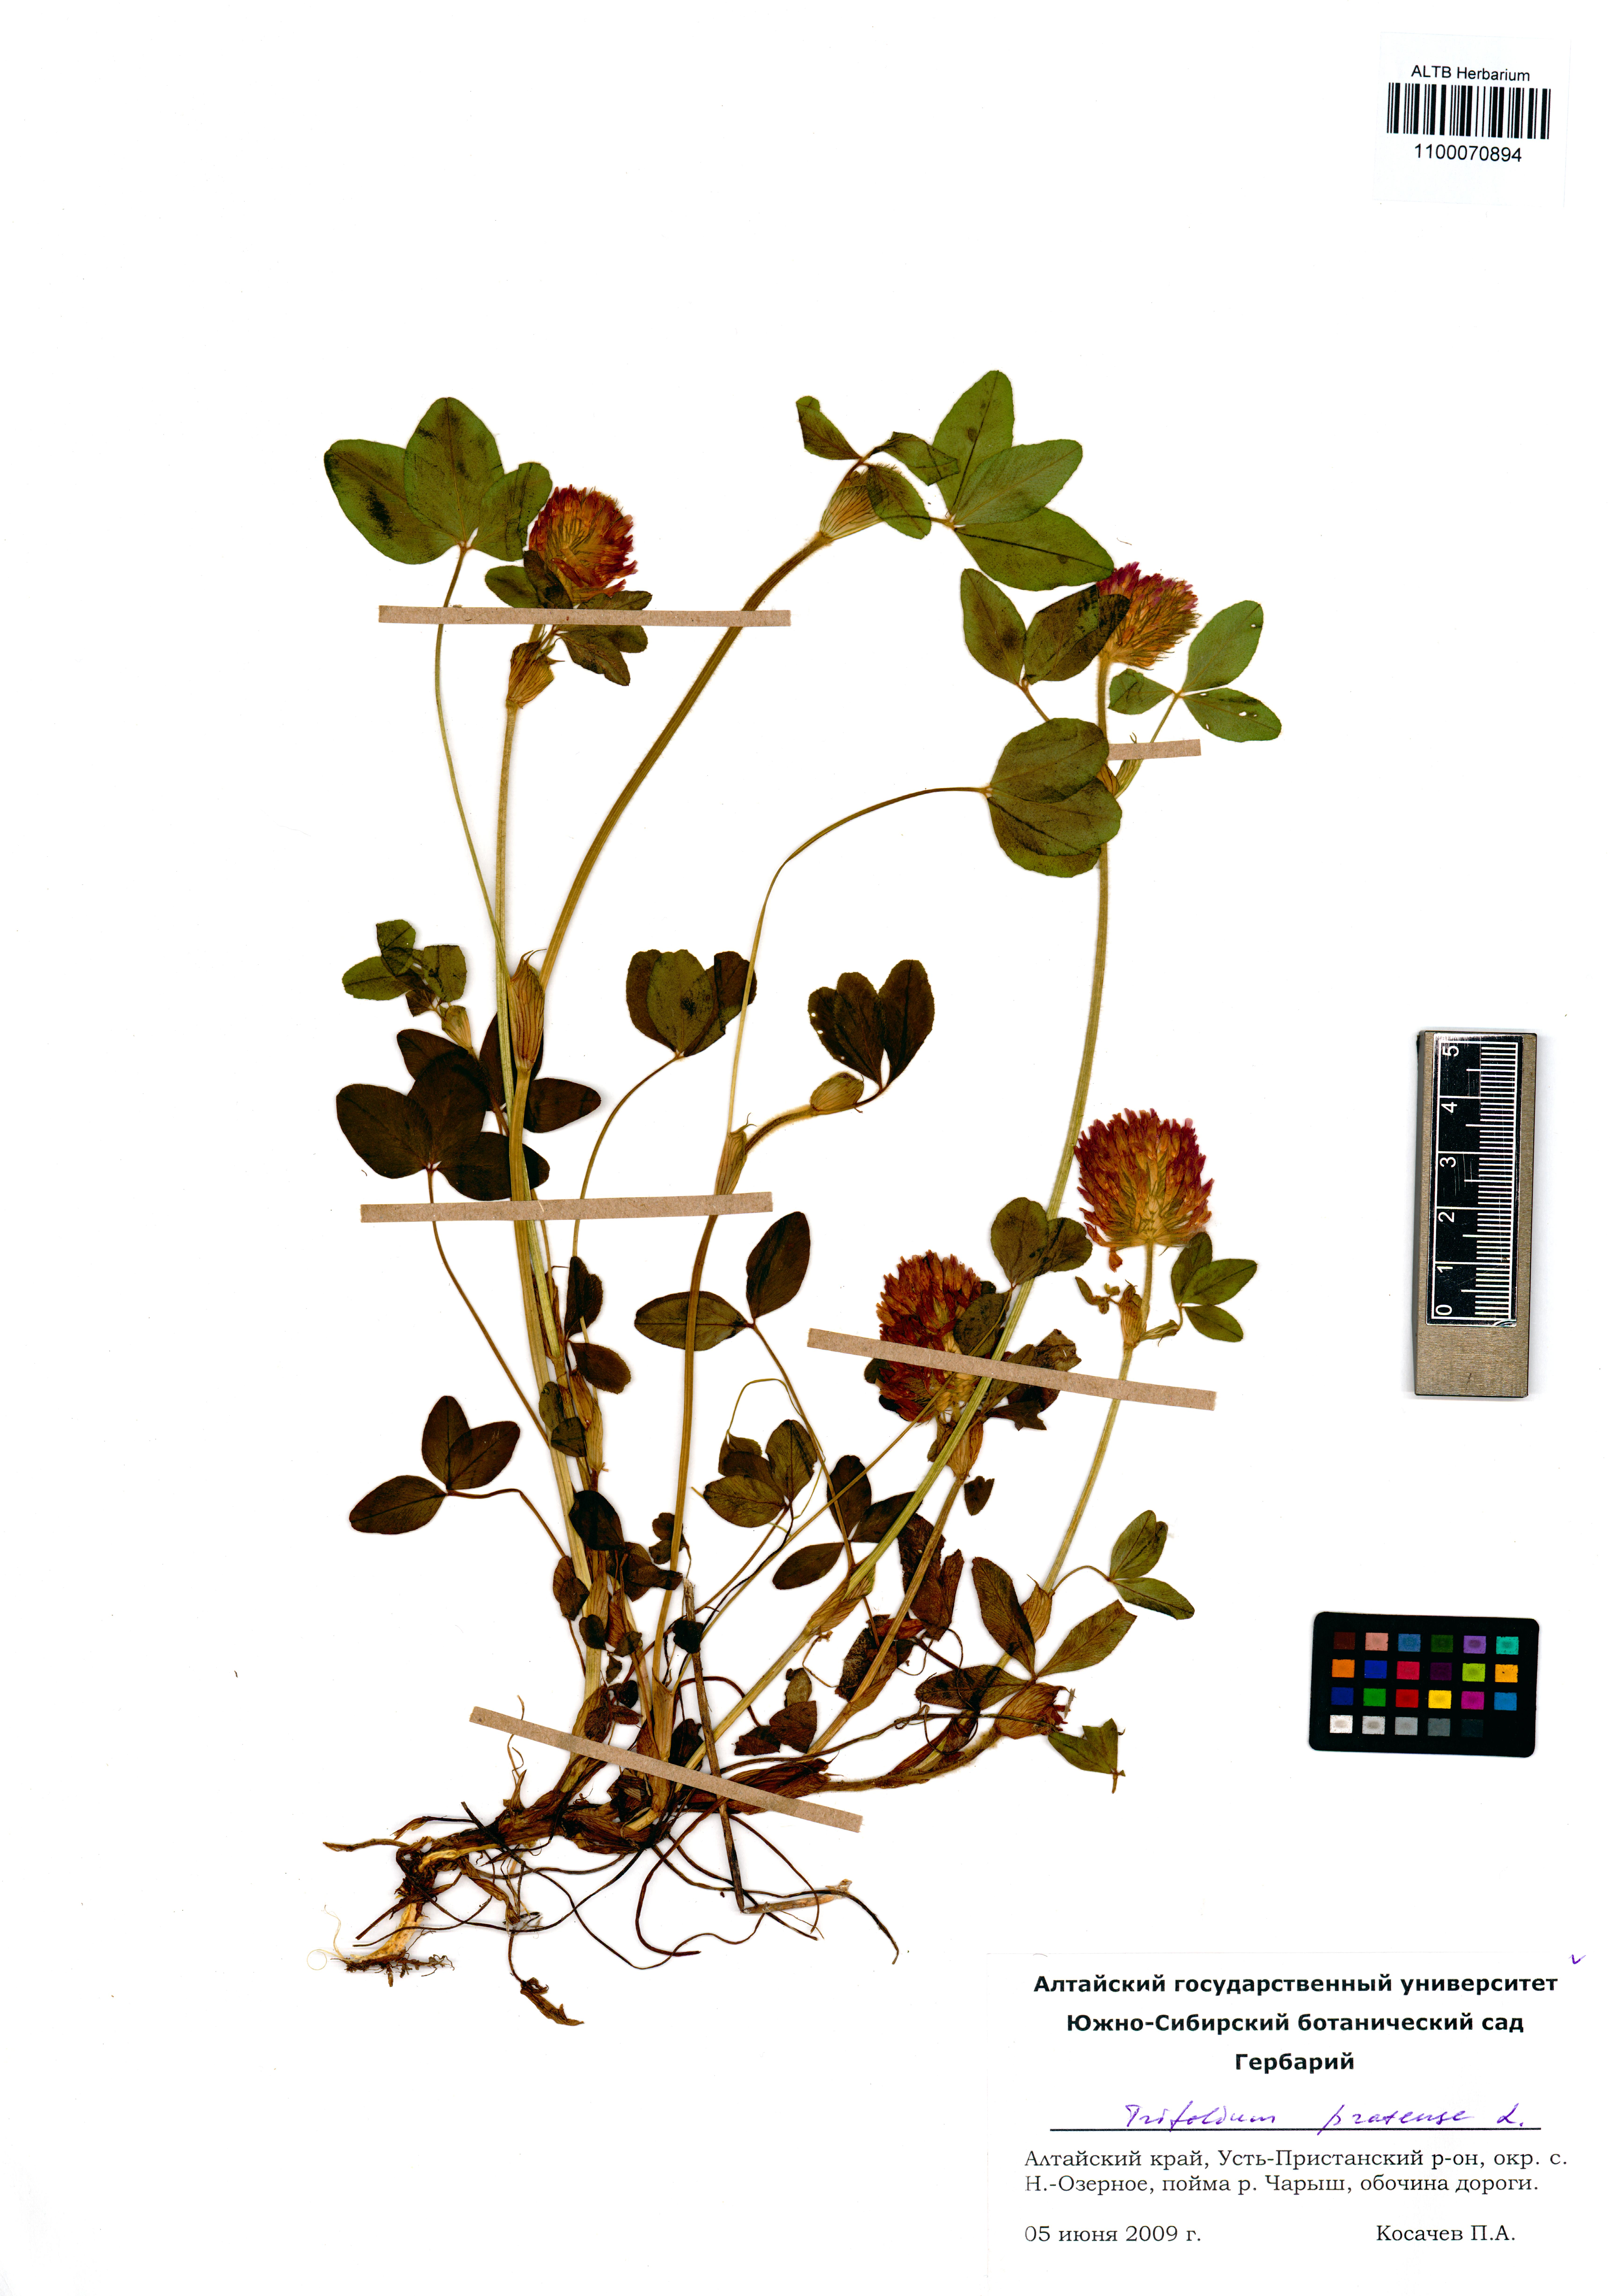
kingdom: Plantae
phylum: Tracheophyta
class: Magnoliopsida
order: Fabales
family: Fabaceae
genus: Trifolium
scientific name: Trifolium pratense
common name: Red clover
